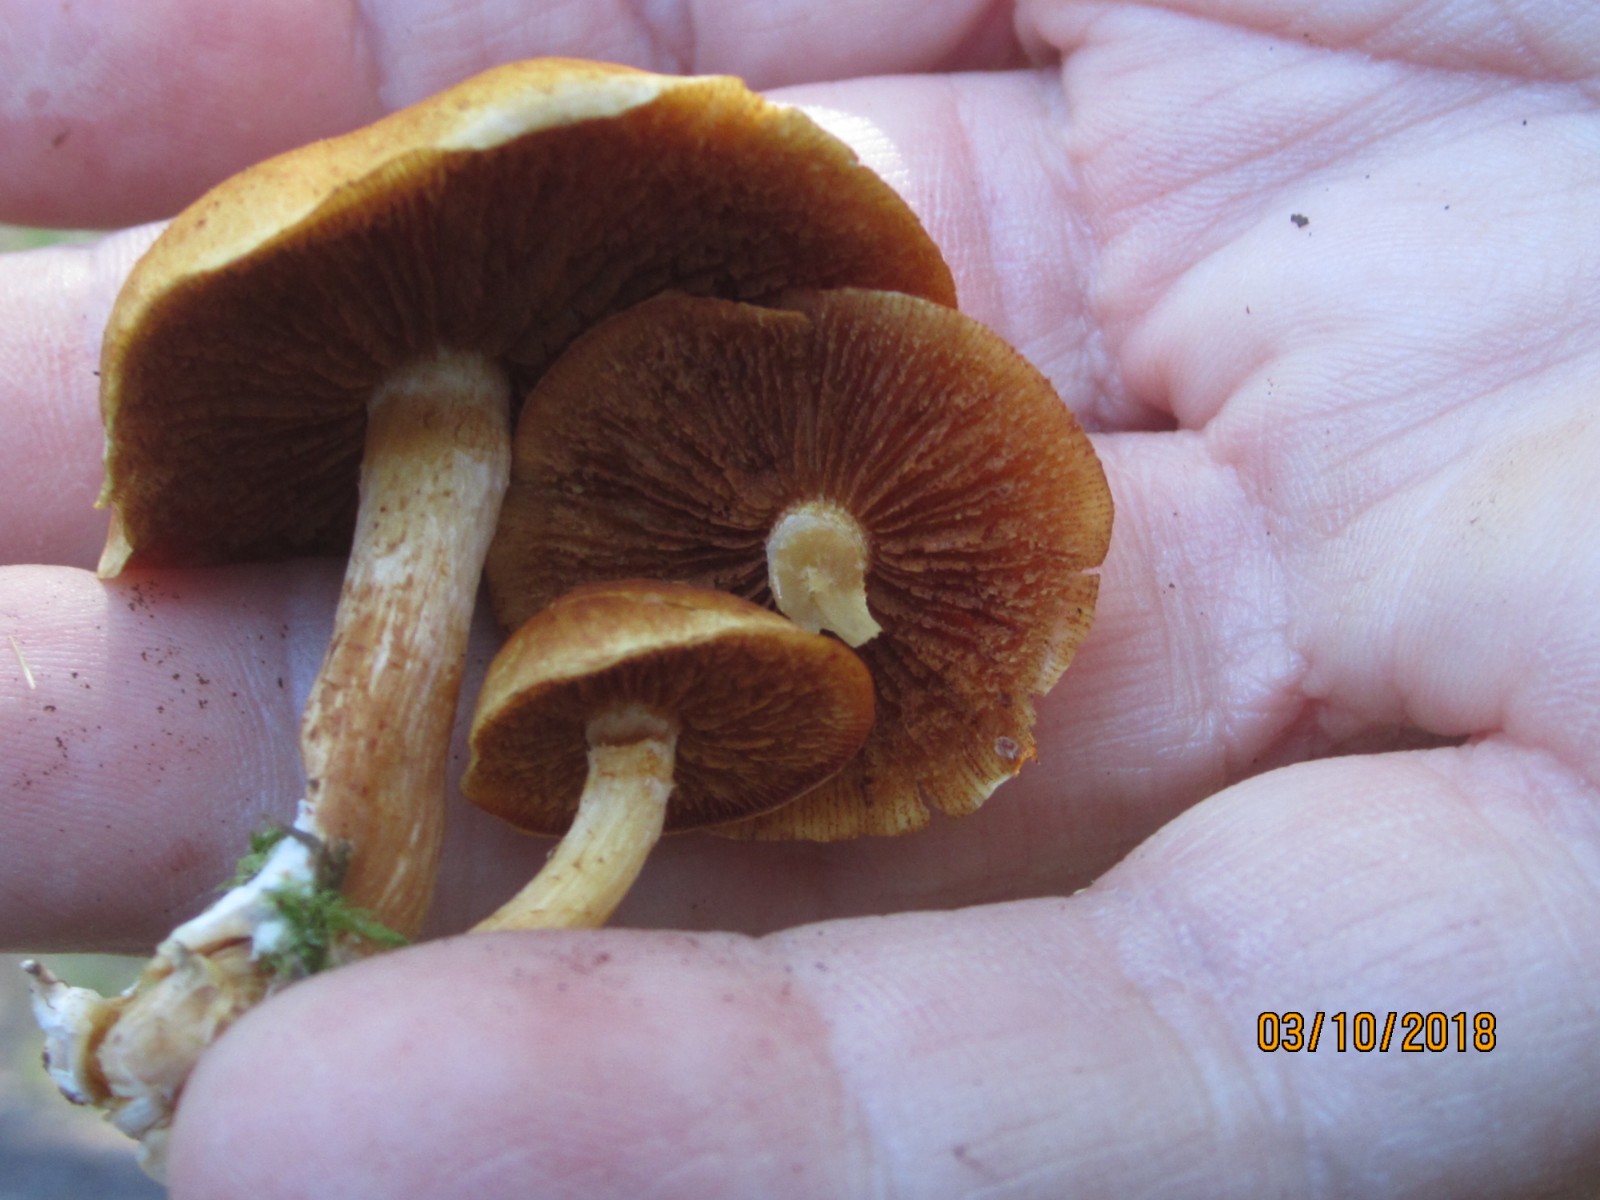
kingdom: Fungi
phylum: Basidiomycota
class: Agaricomycetes
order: Agaricales
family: Hymenogastraceae
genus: Gymnopilus
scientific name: Gymnopilus penetrans
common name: plettet flammehat
